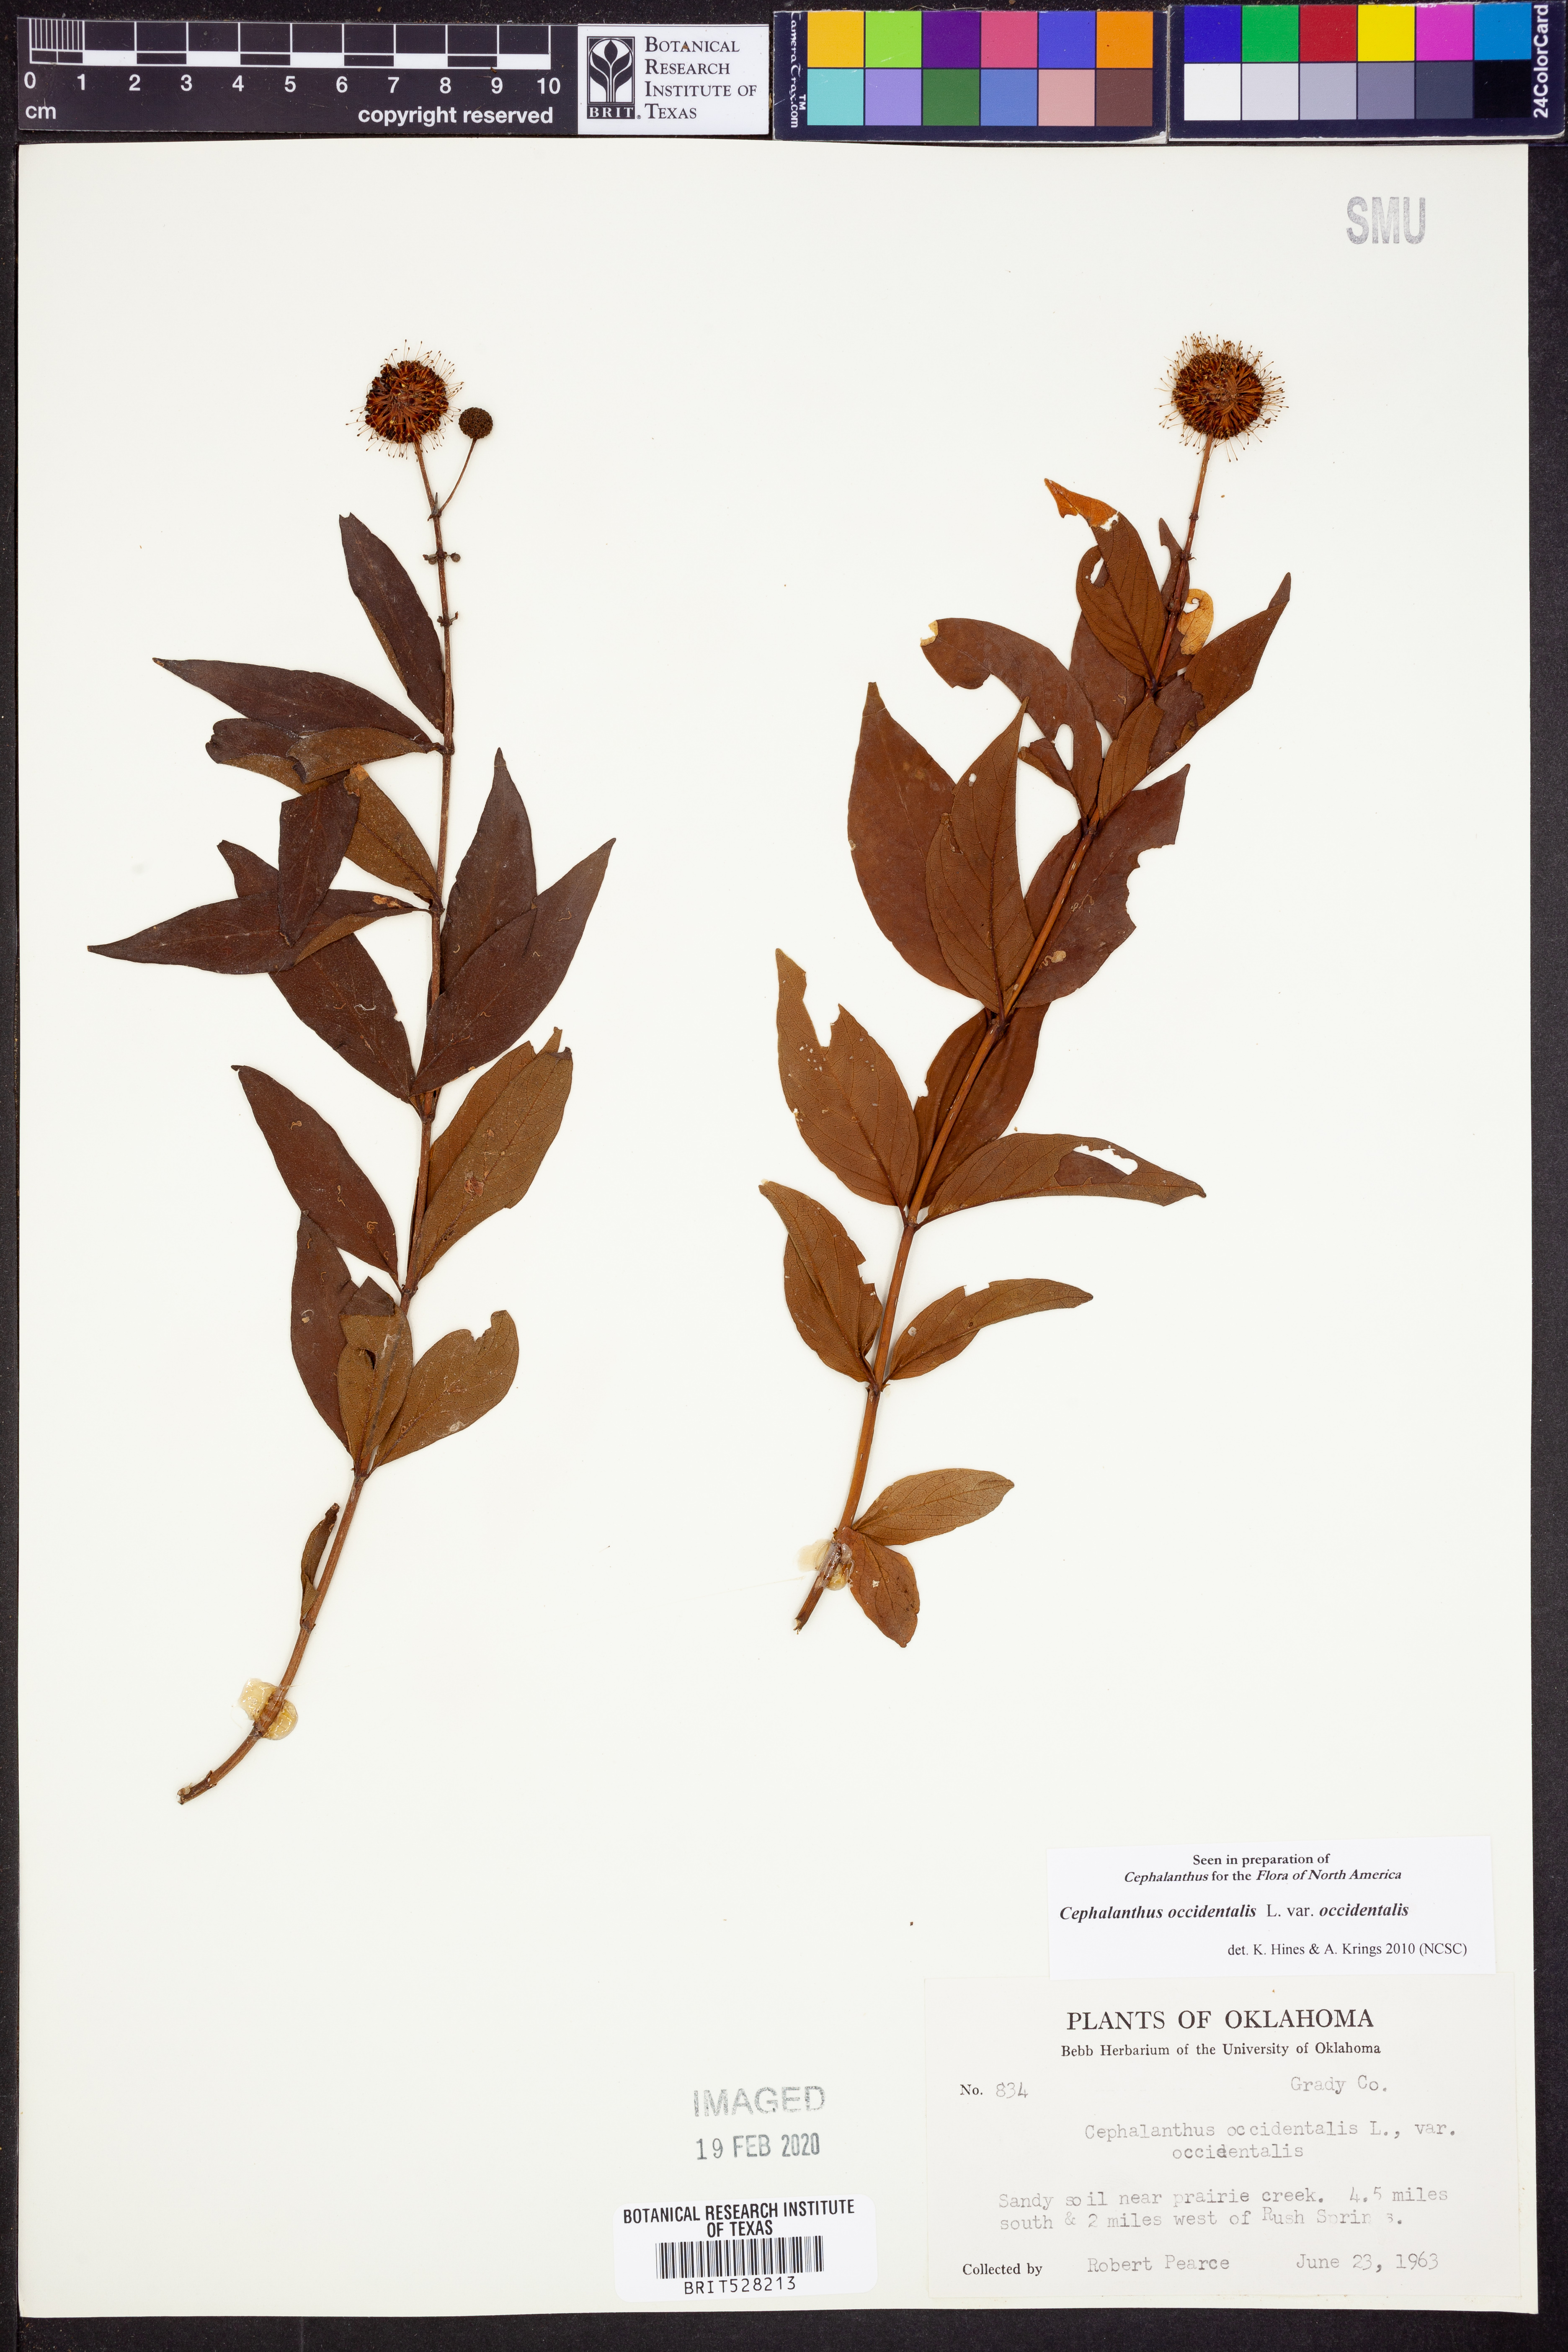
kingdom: Plantae
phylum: Tracheophyta
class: Magnoliopsida
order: Gentianales
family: Rubiaceae
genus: Cephalanthus
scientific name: Cephalanthus occidentalis
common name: Button-willow
